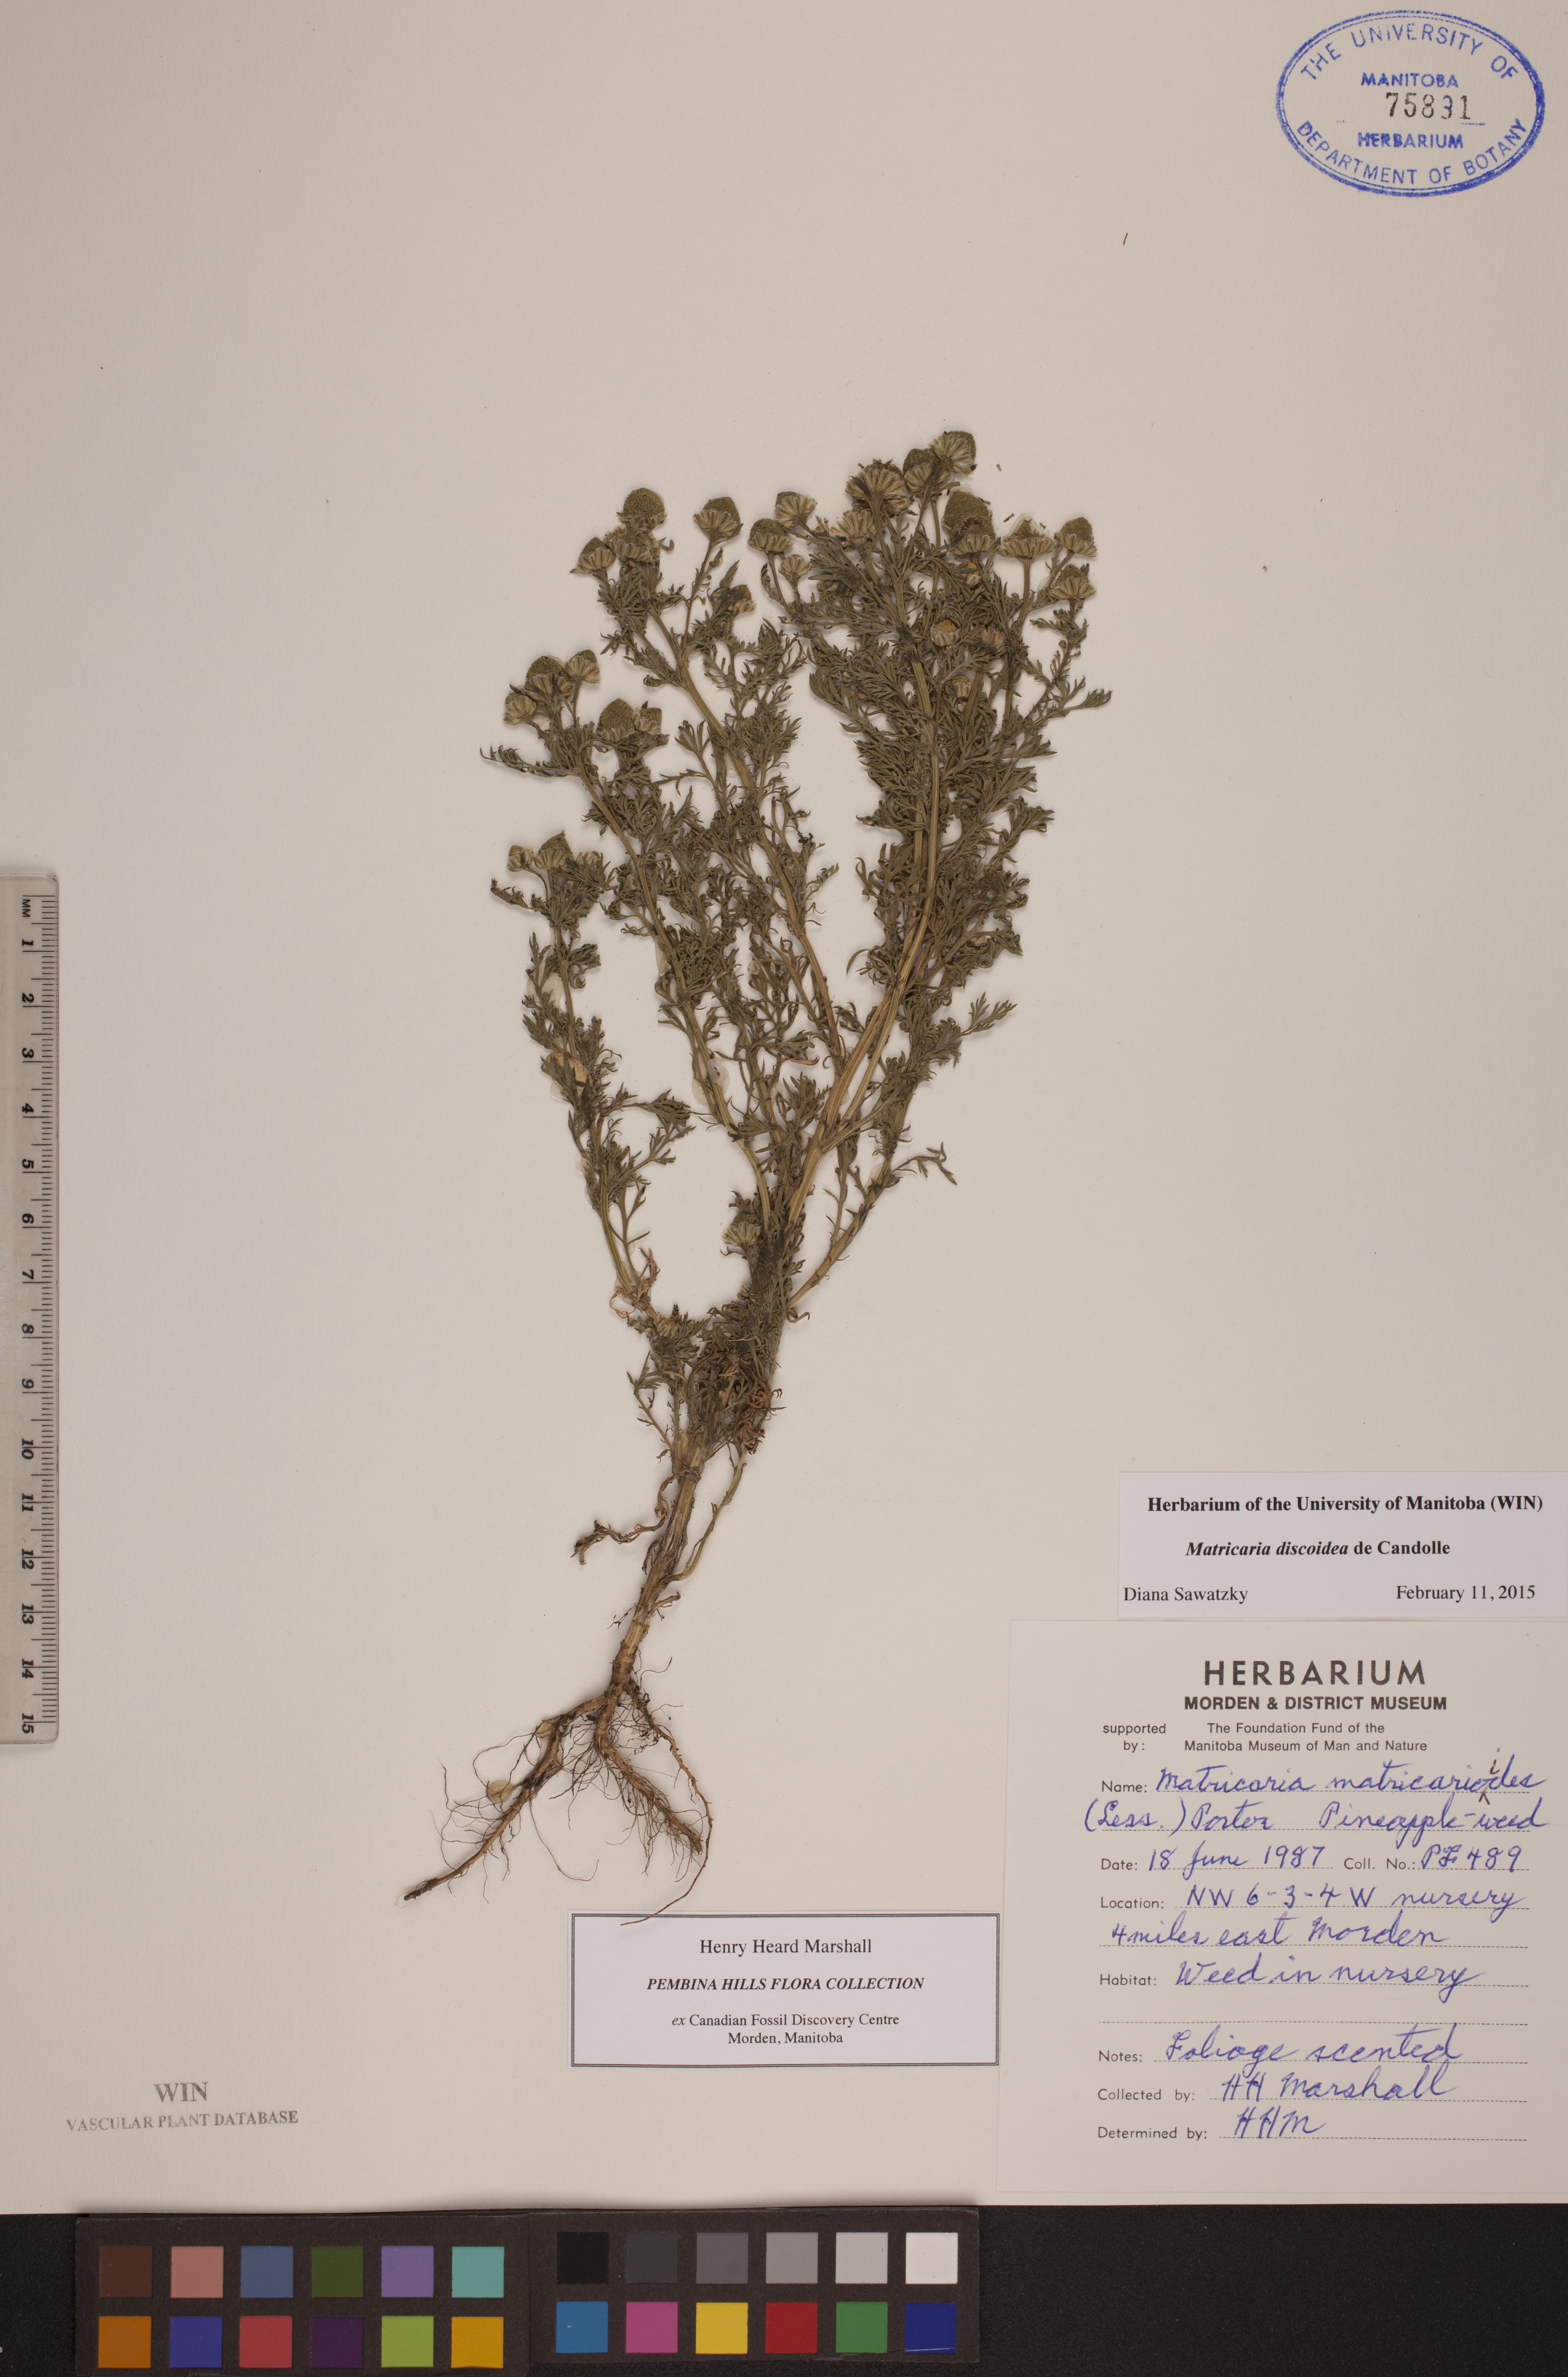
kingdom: Plantae
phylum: Tracheophyta
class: Magnoliopsida
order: Asterales
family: Asteraceae
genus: Matricaria
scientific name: Matricaria discoidea
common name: Disc mayweed
